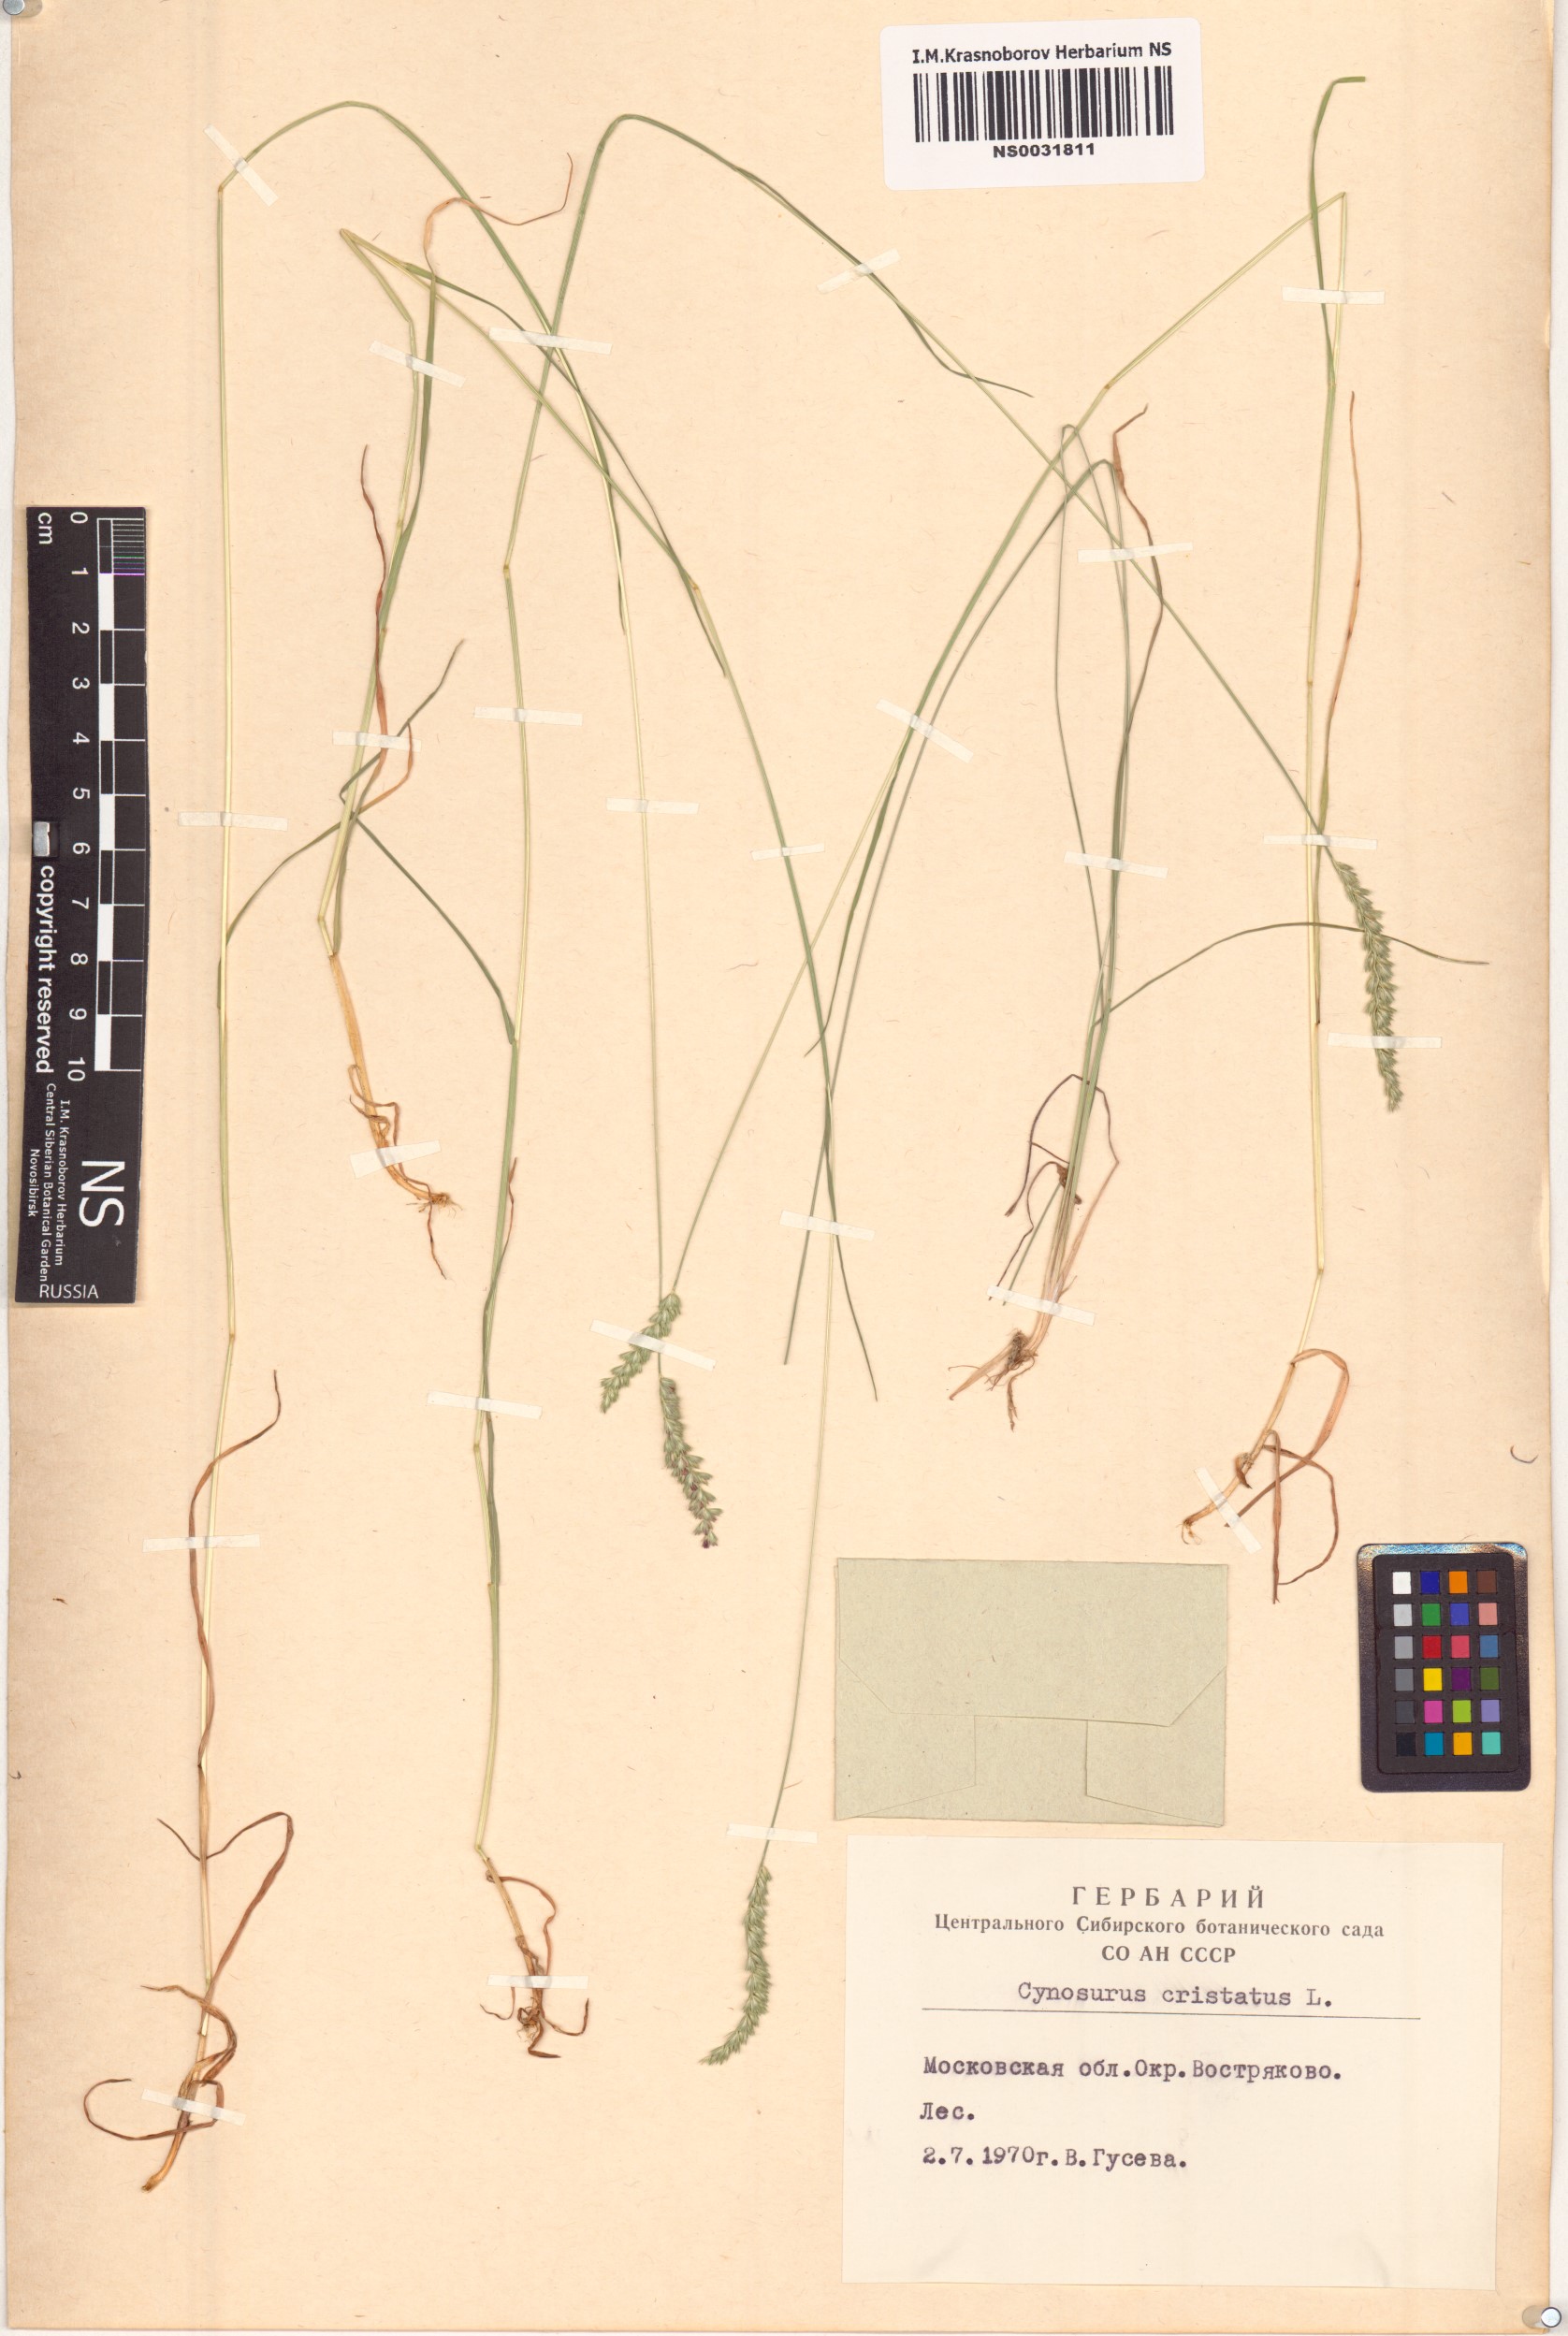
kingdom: Plantae
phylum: Tracheophyta
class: Liliopsida
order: Poales
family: Poaceae
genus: Cynosurus
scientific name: Cynosurus cristatus
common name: Crested dog's-tail
